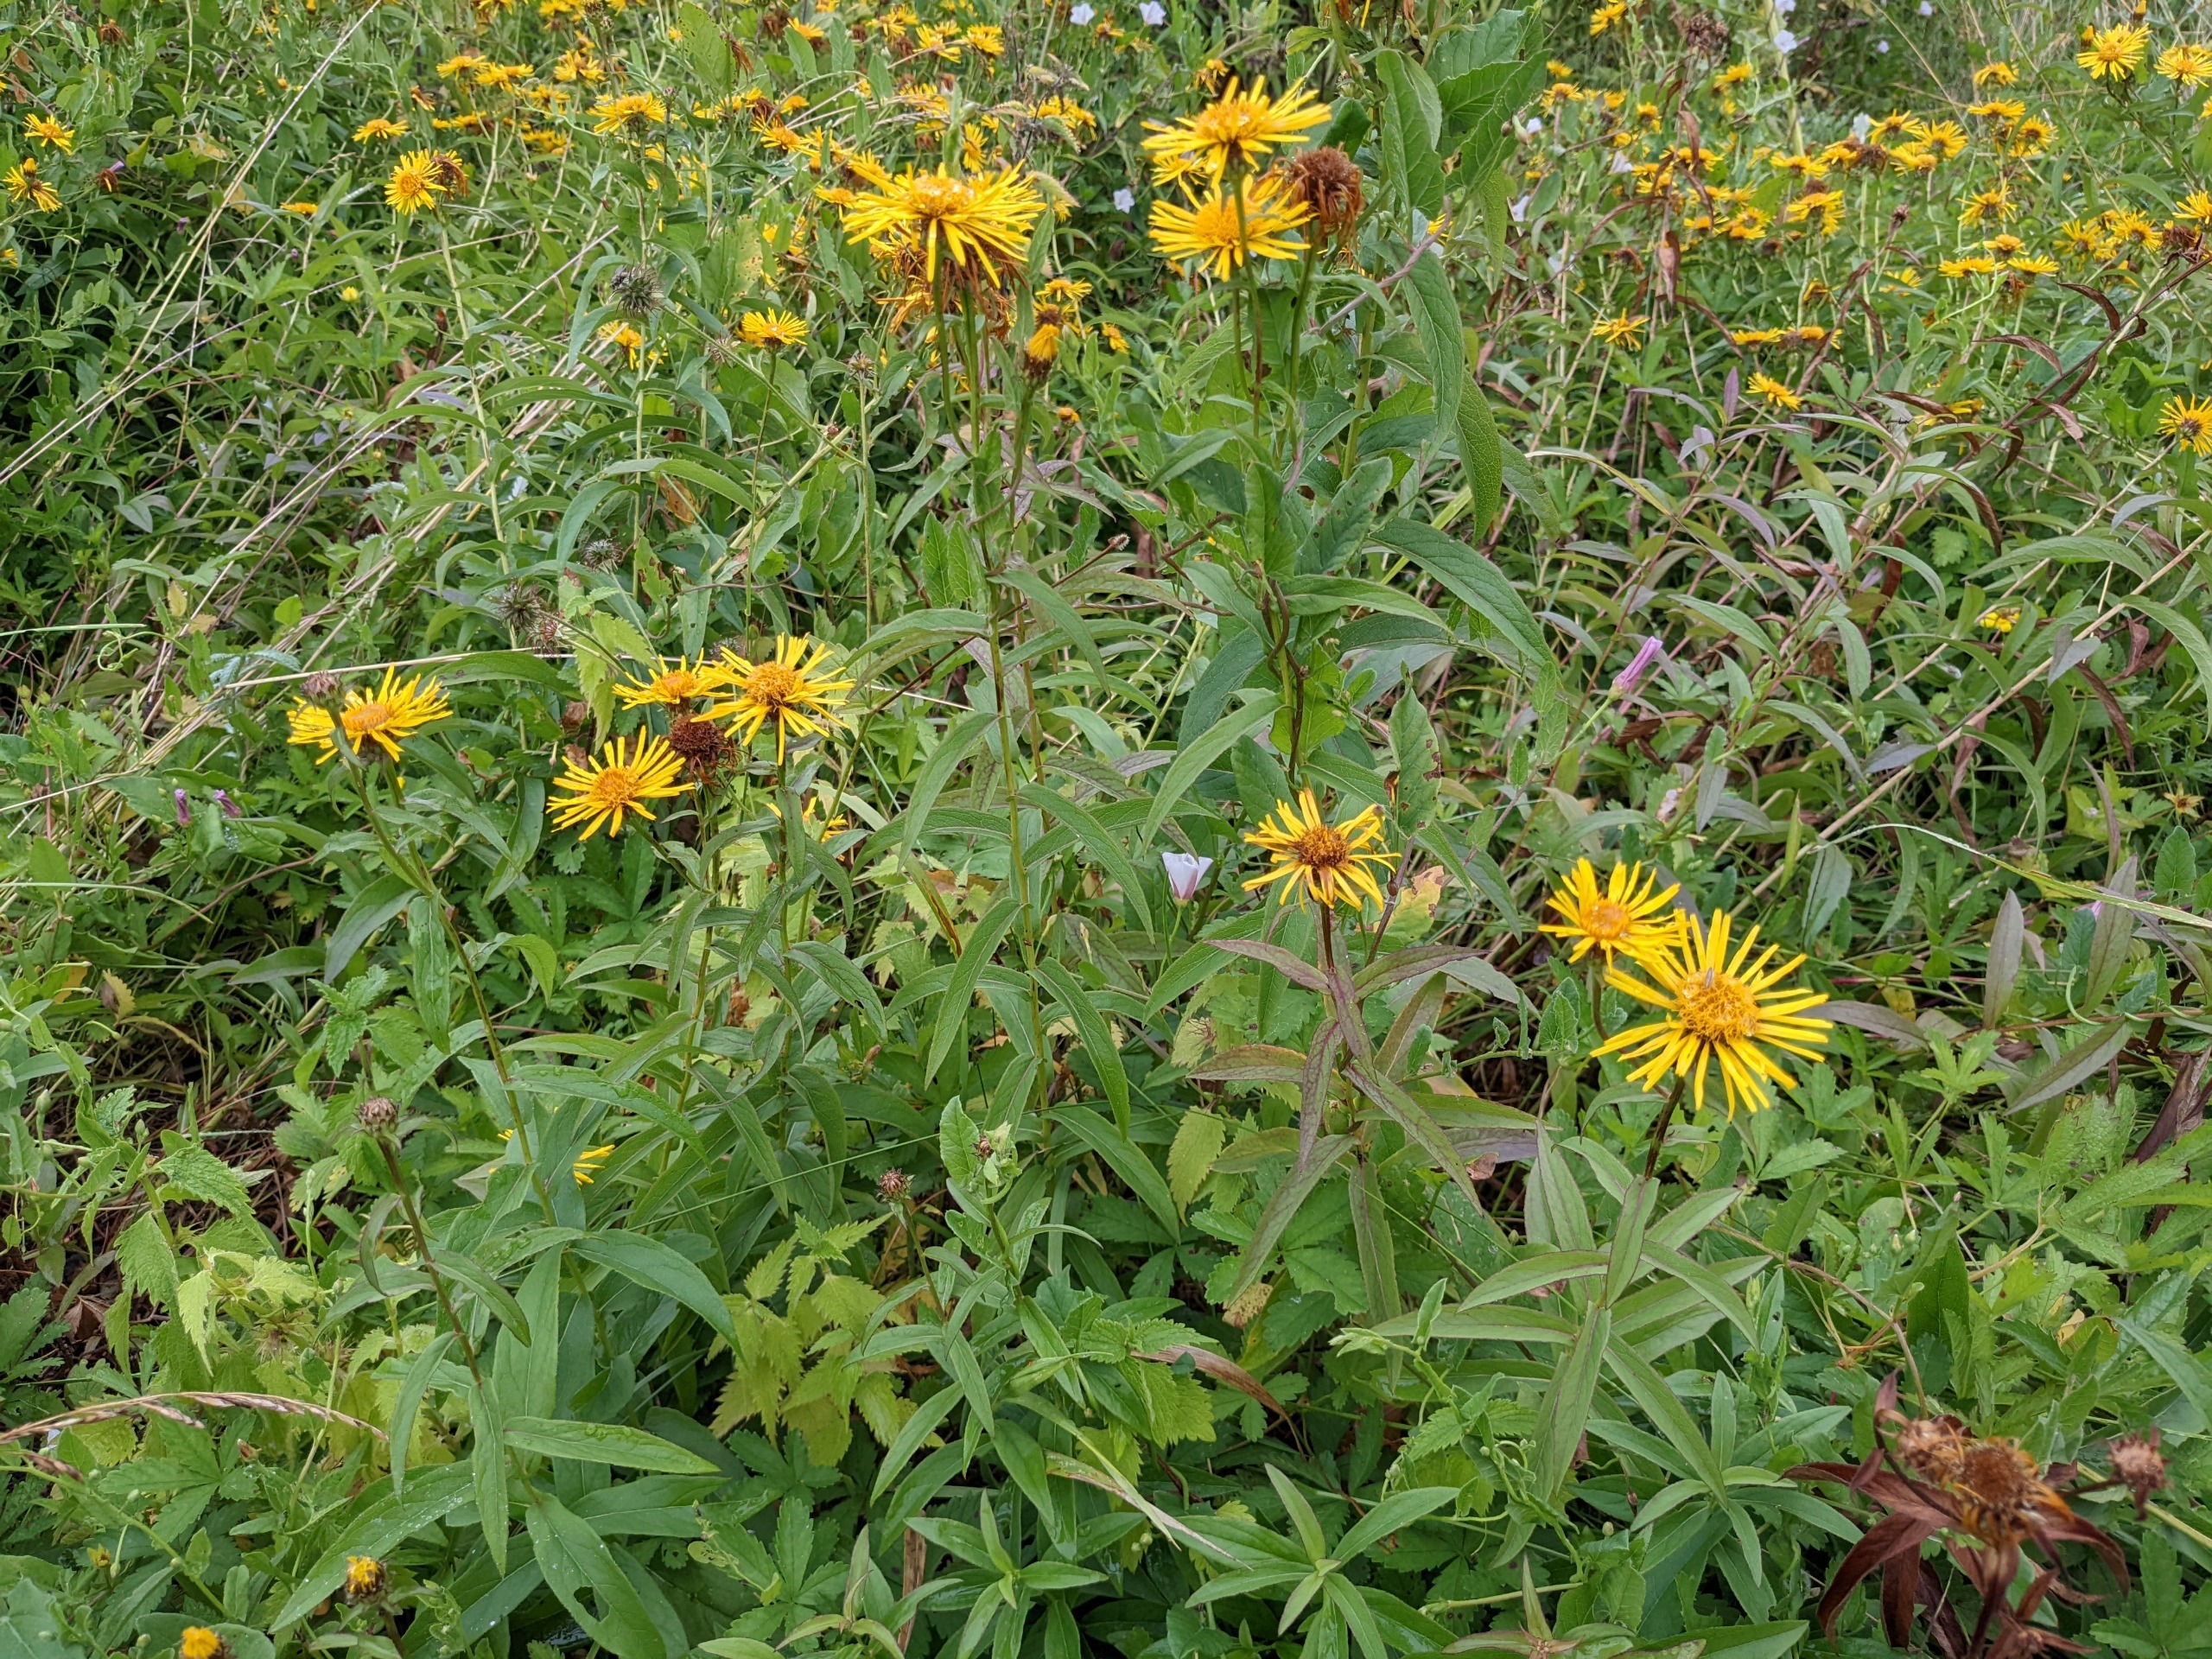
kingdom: Plantae
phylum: Tracheophyta
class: Magnoliopsida
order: Asterales
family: Asteraceae
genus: Pentanema
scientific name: Pentanema salicinum
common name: Pile-alant
